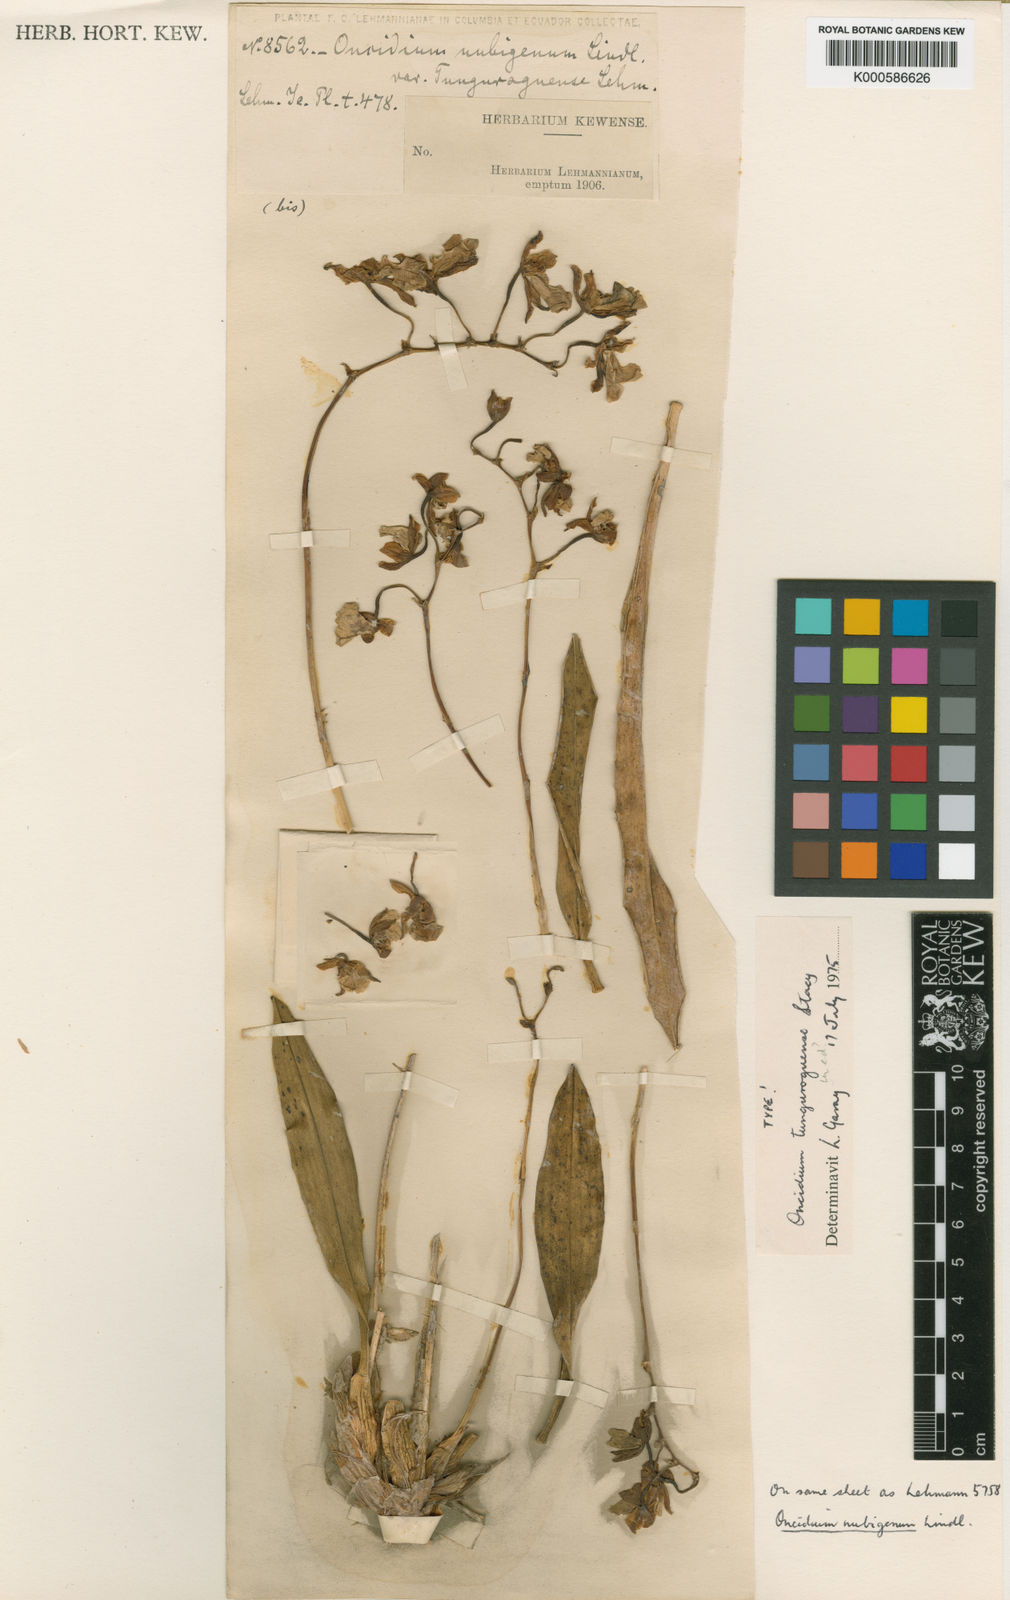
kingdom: Plantae
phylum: Tracheophyta
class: Liliopsida
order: Asparagales
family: Orchidaceae
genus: Caucaea
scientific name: Caucaea nubigena
